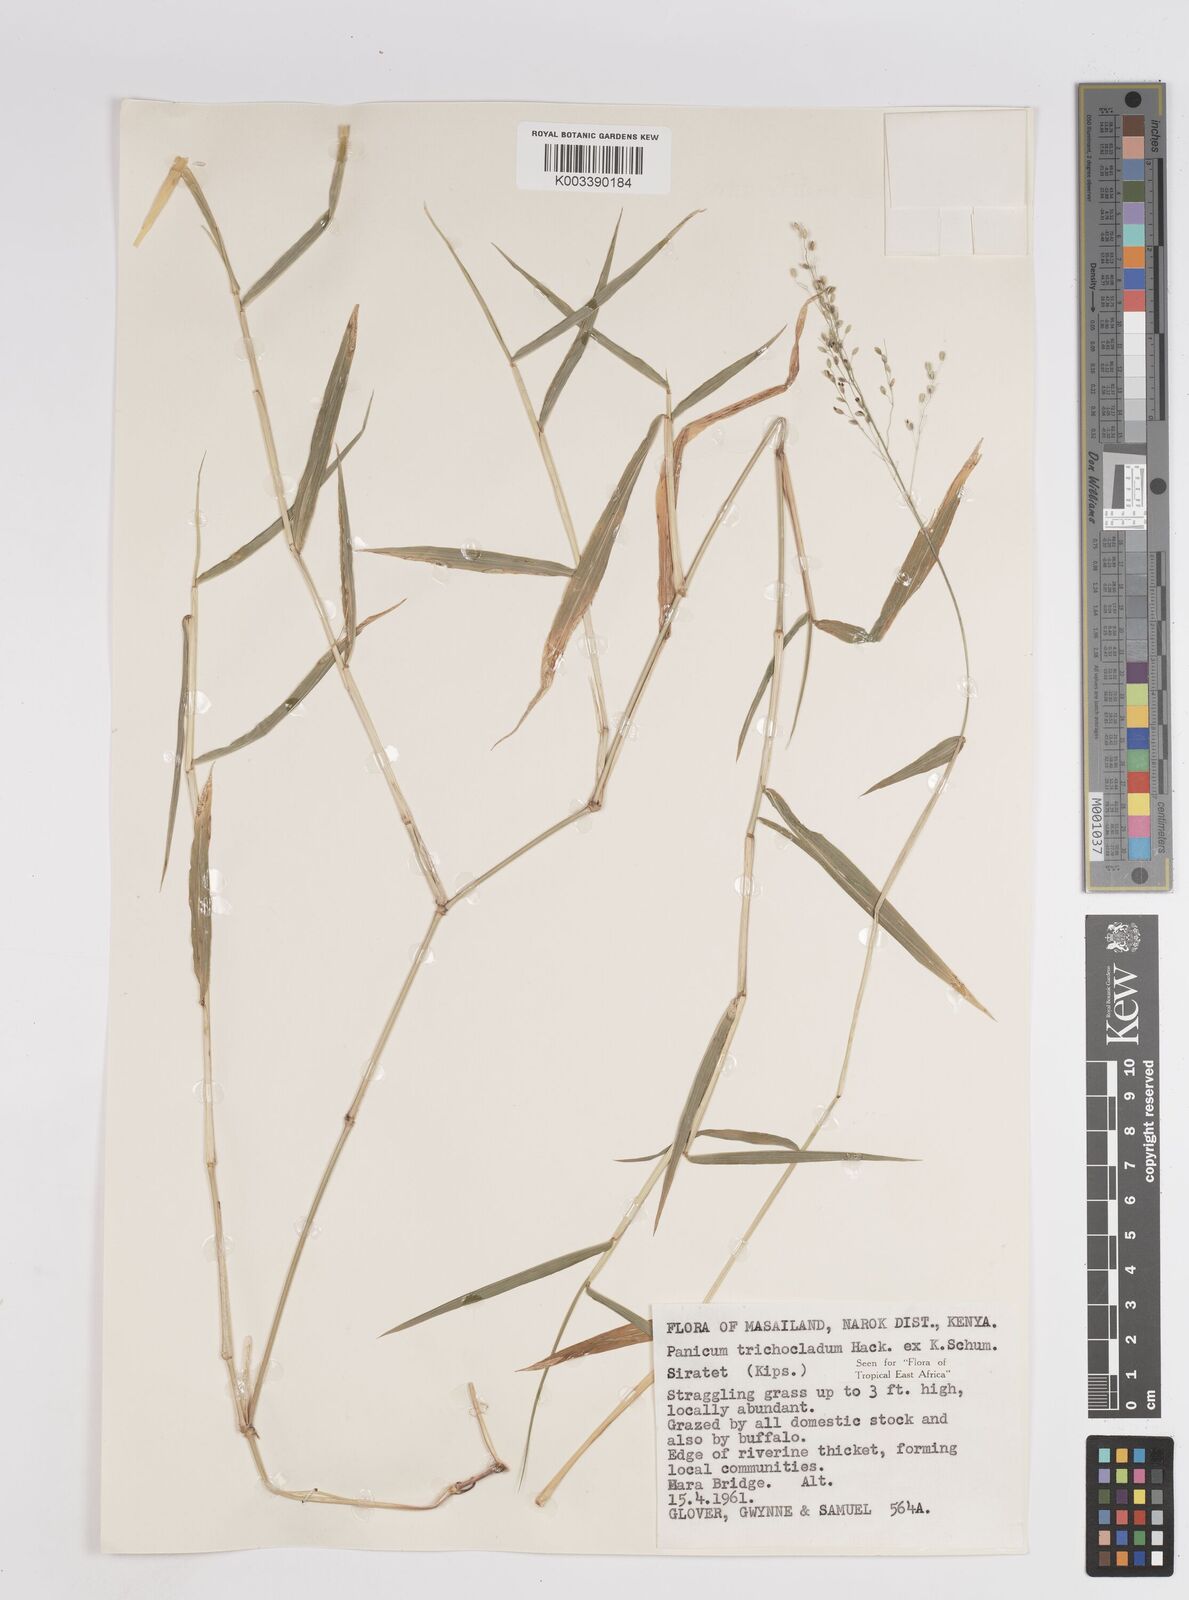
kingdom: Plantae
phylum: Tracheophyta
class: Liliopsida
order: Poales
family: Poaceae
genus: Panicum
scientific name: Panicum trichocladum
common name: Donkey grass
